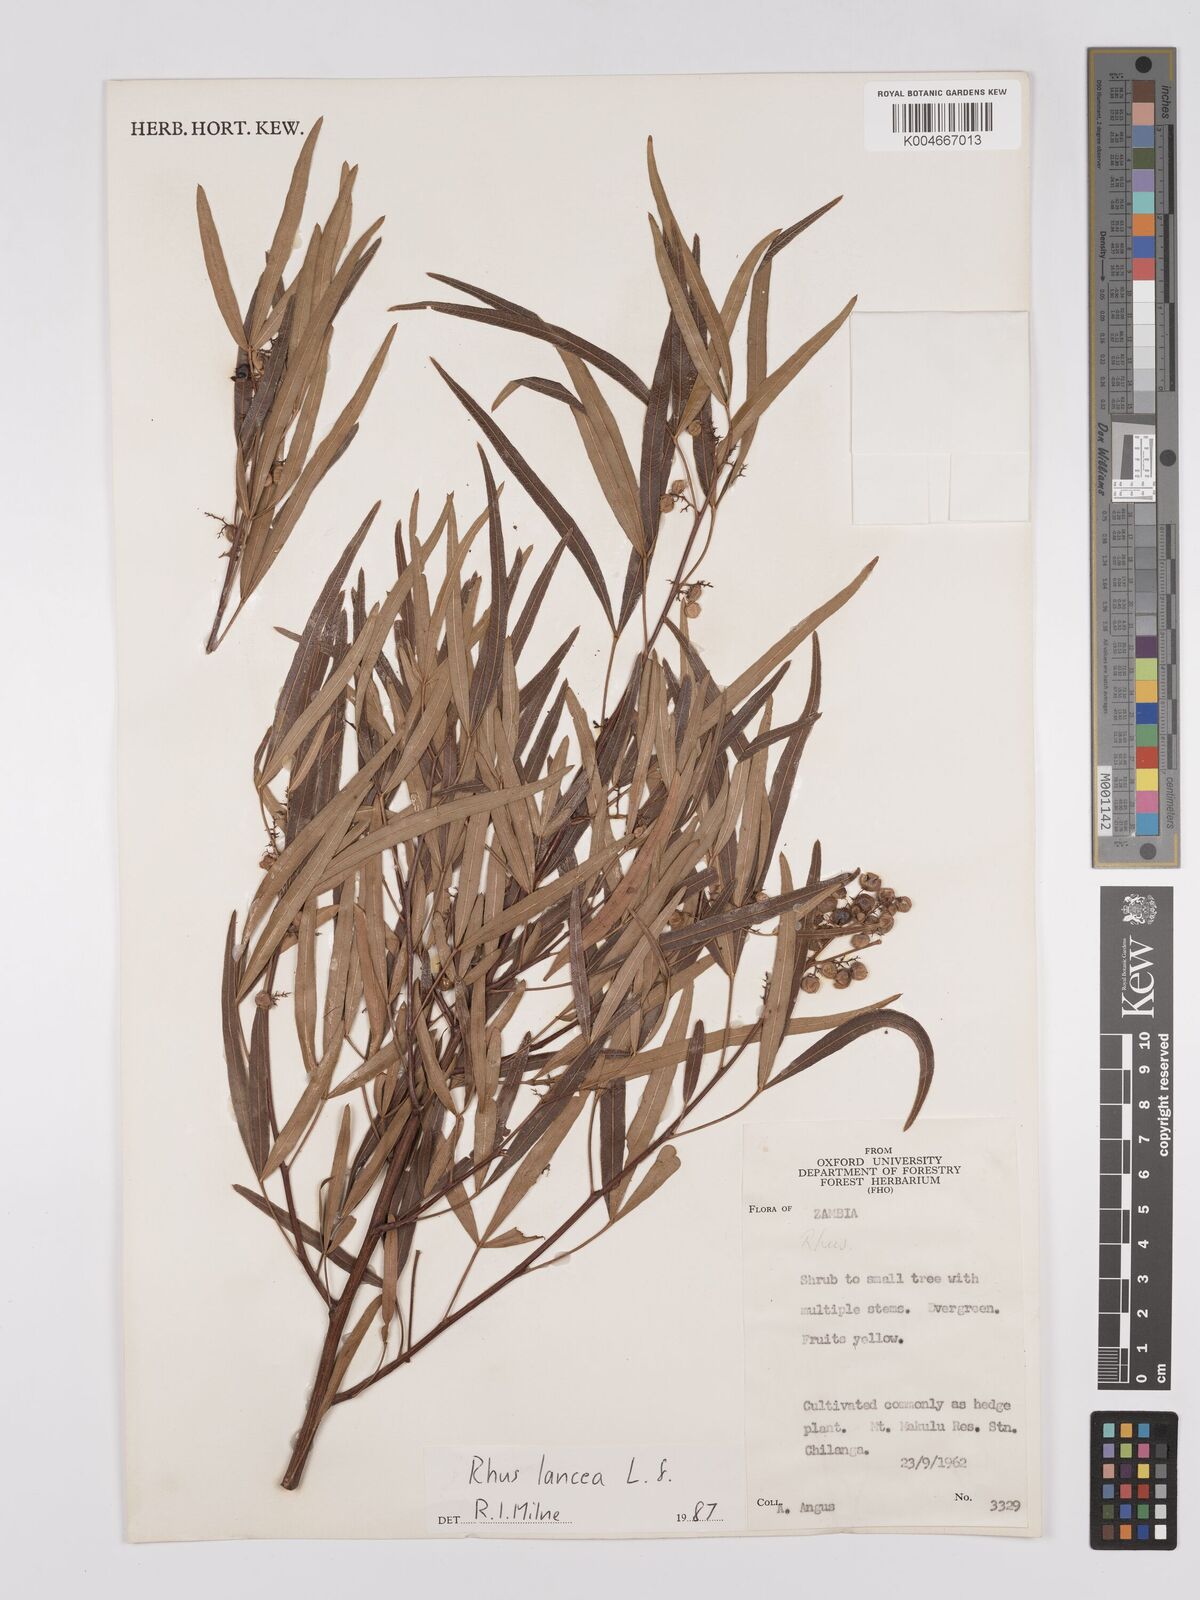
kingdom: Plantae
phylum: Tracheophyta
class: Magnoliopsida
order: Sapindales
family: Anacardiaceae
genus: Searsia
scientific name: Searsia lancea
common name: Cashew
